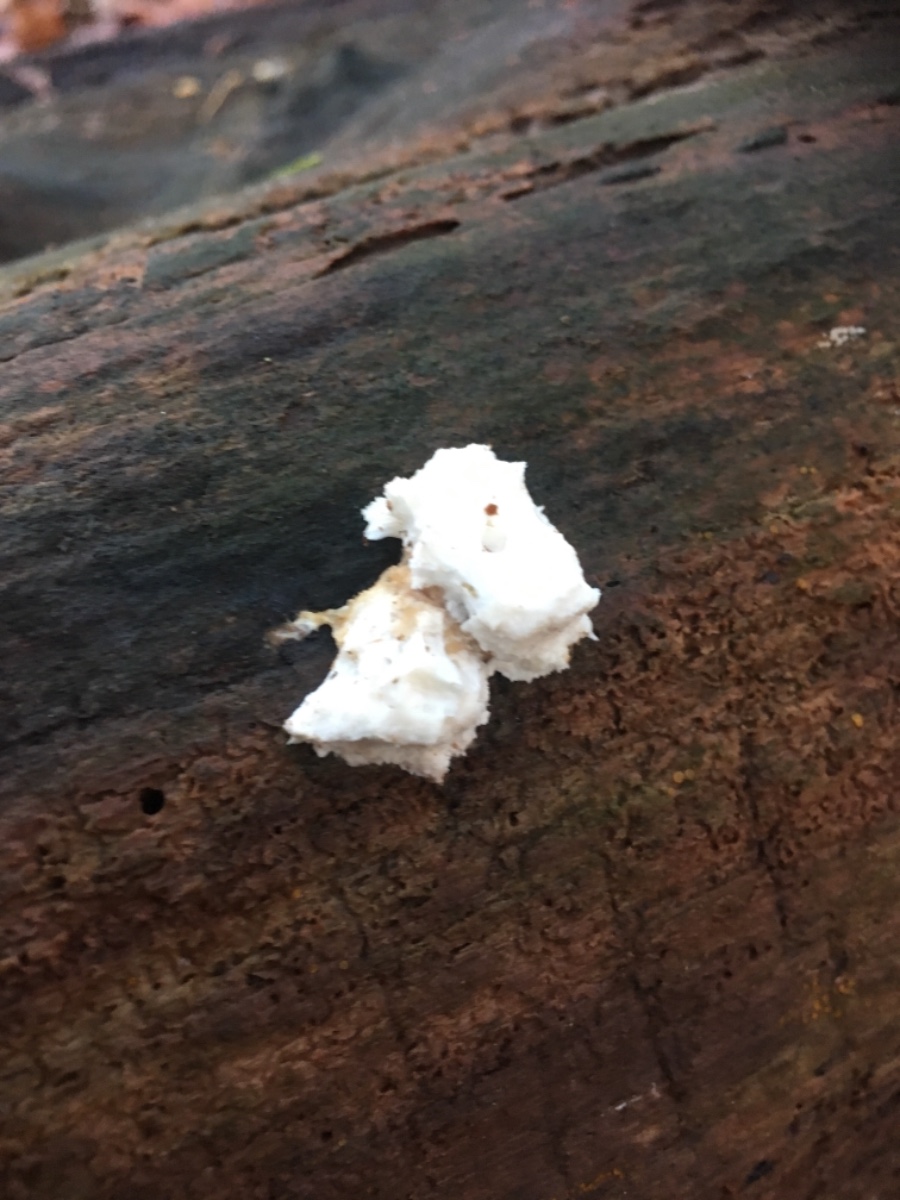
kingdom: Fungi
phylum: Basidiomycota
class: Agaricomycetes
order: Polyporales
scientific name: Polyporales
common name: poresvampordenen
